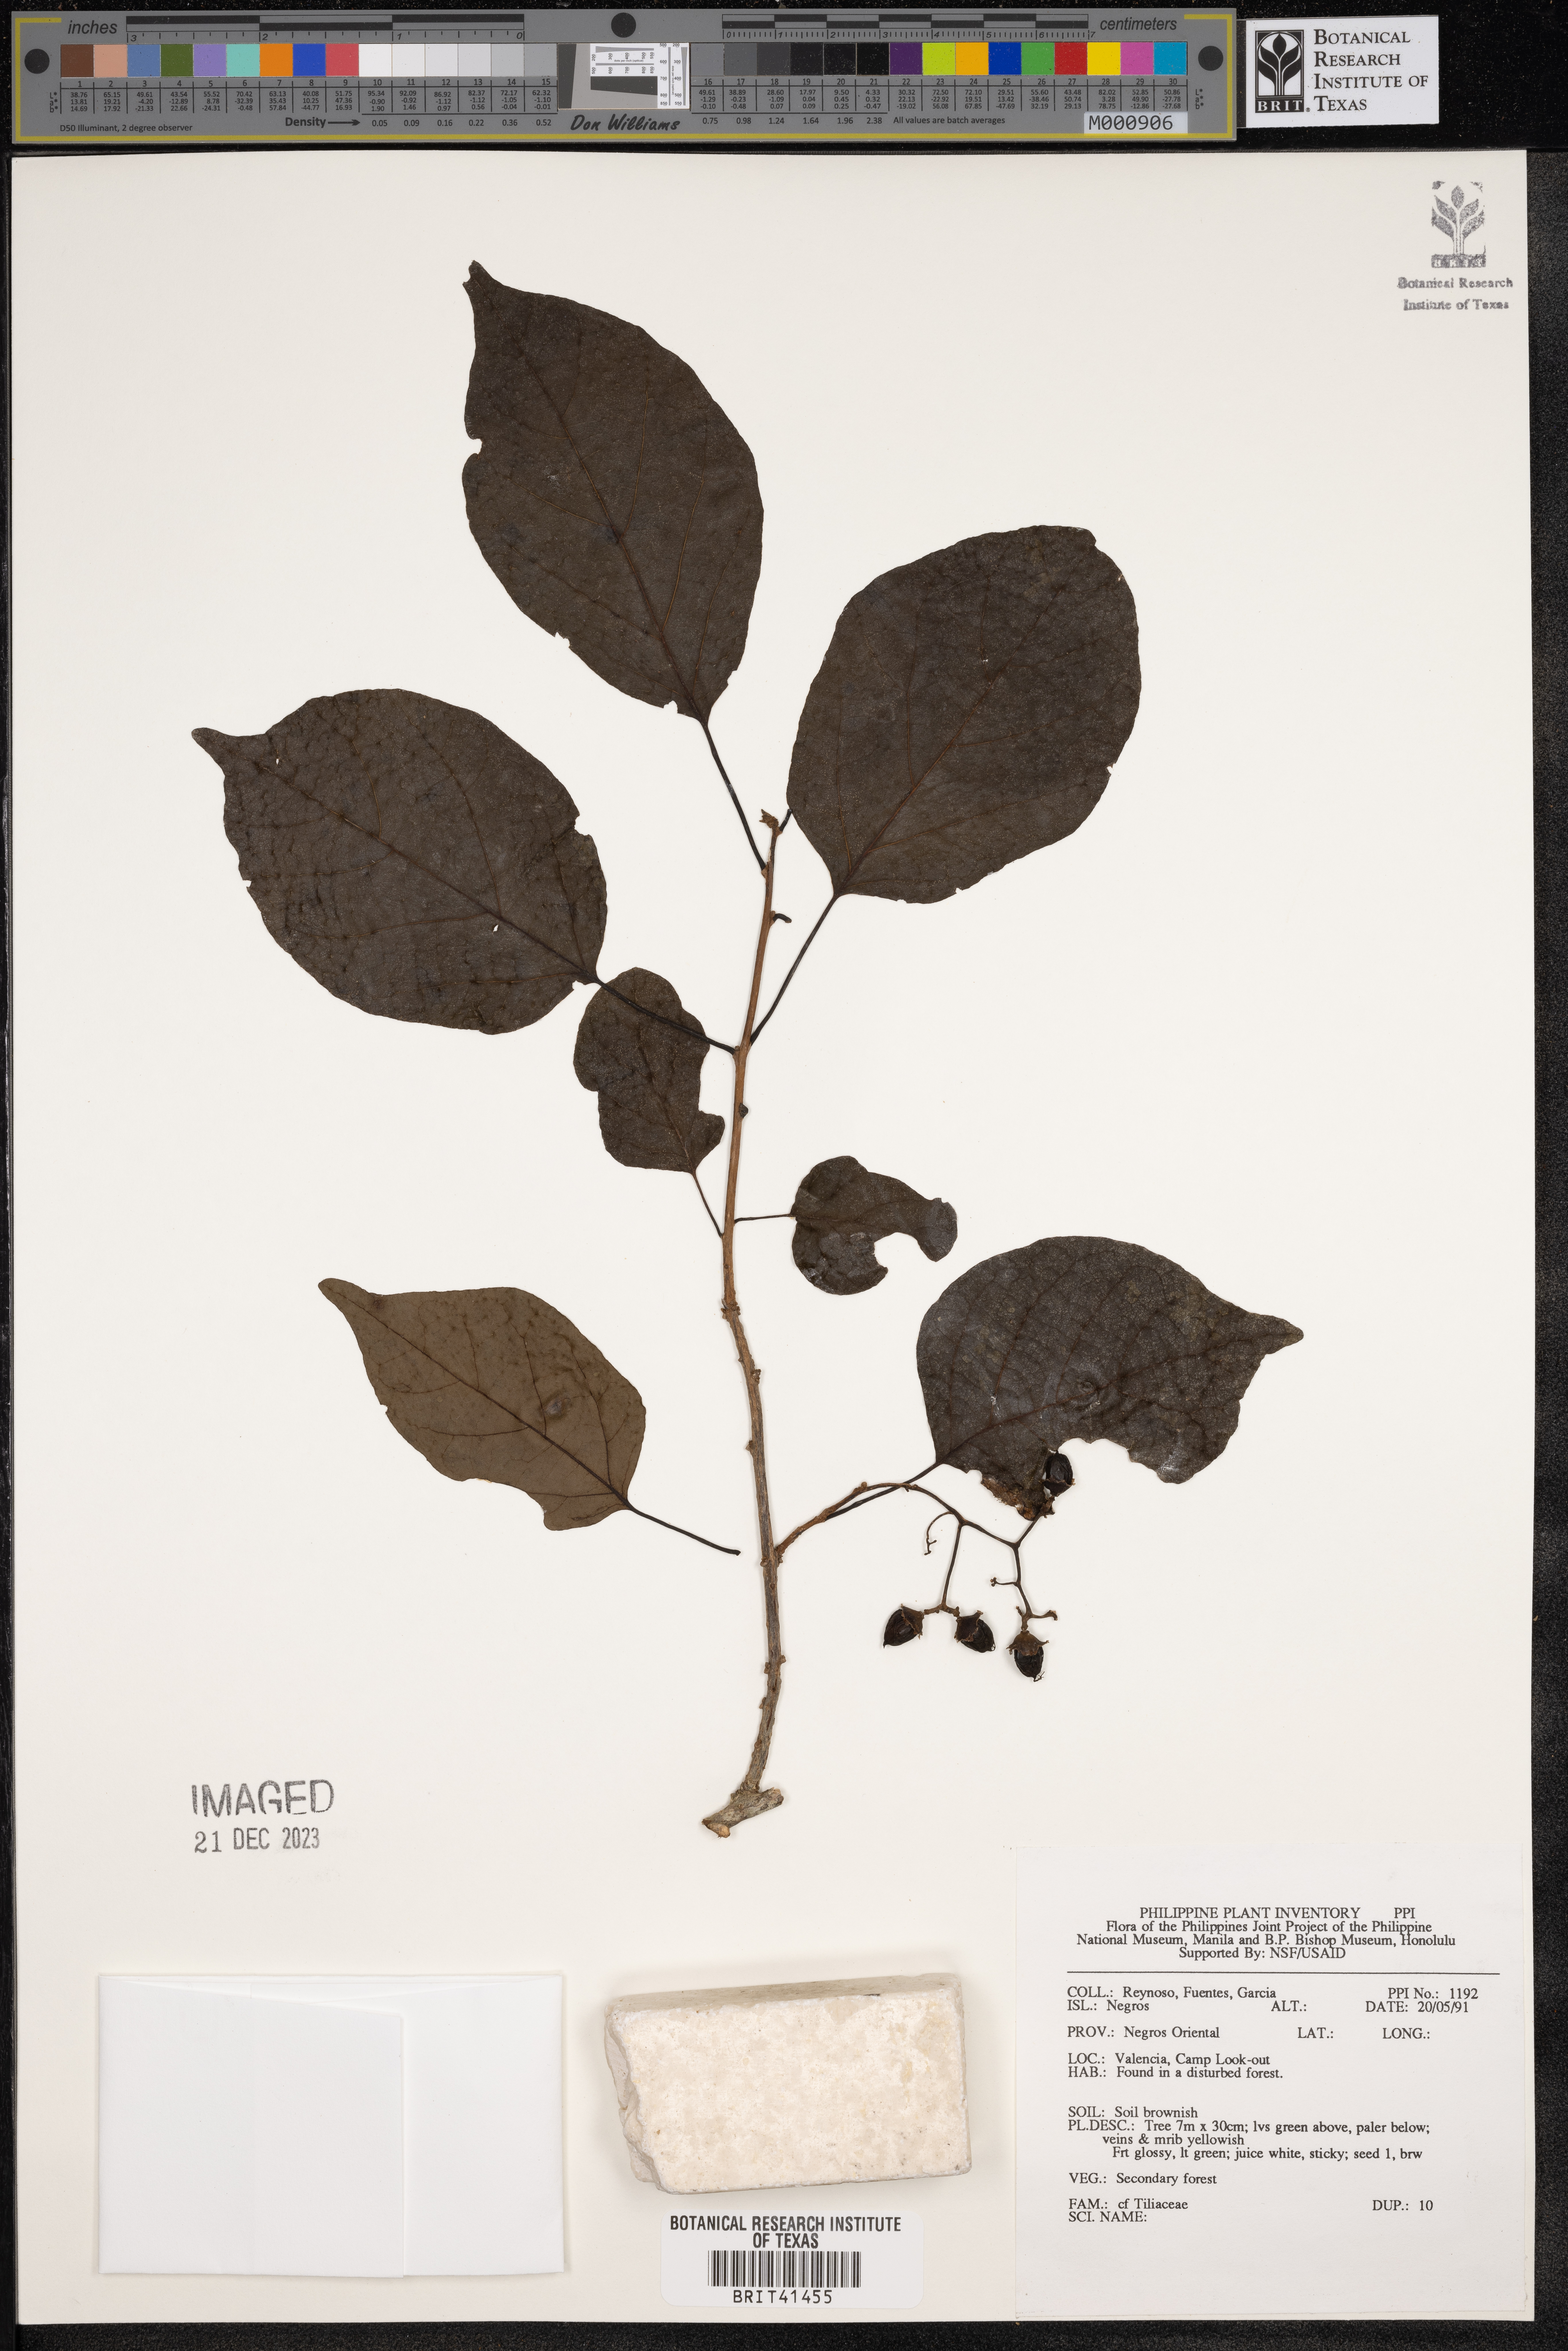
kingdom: Plantae
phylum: Tracheophyta
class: Magnoliopsida
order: Malvales
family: Tiliaceae
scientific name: Tiliaceae
